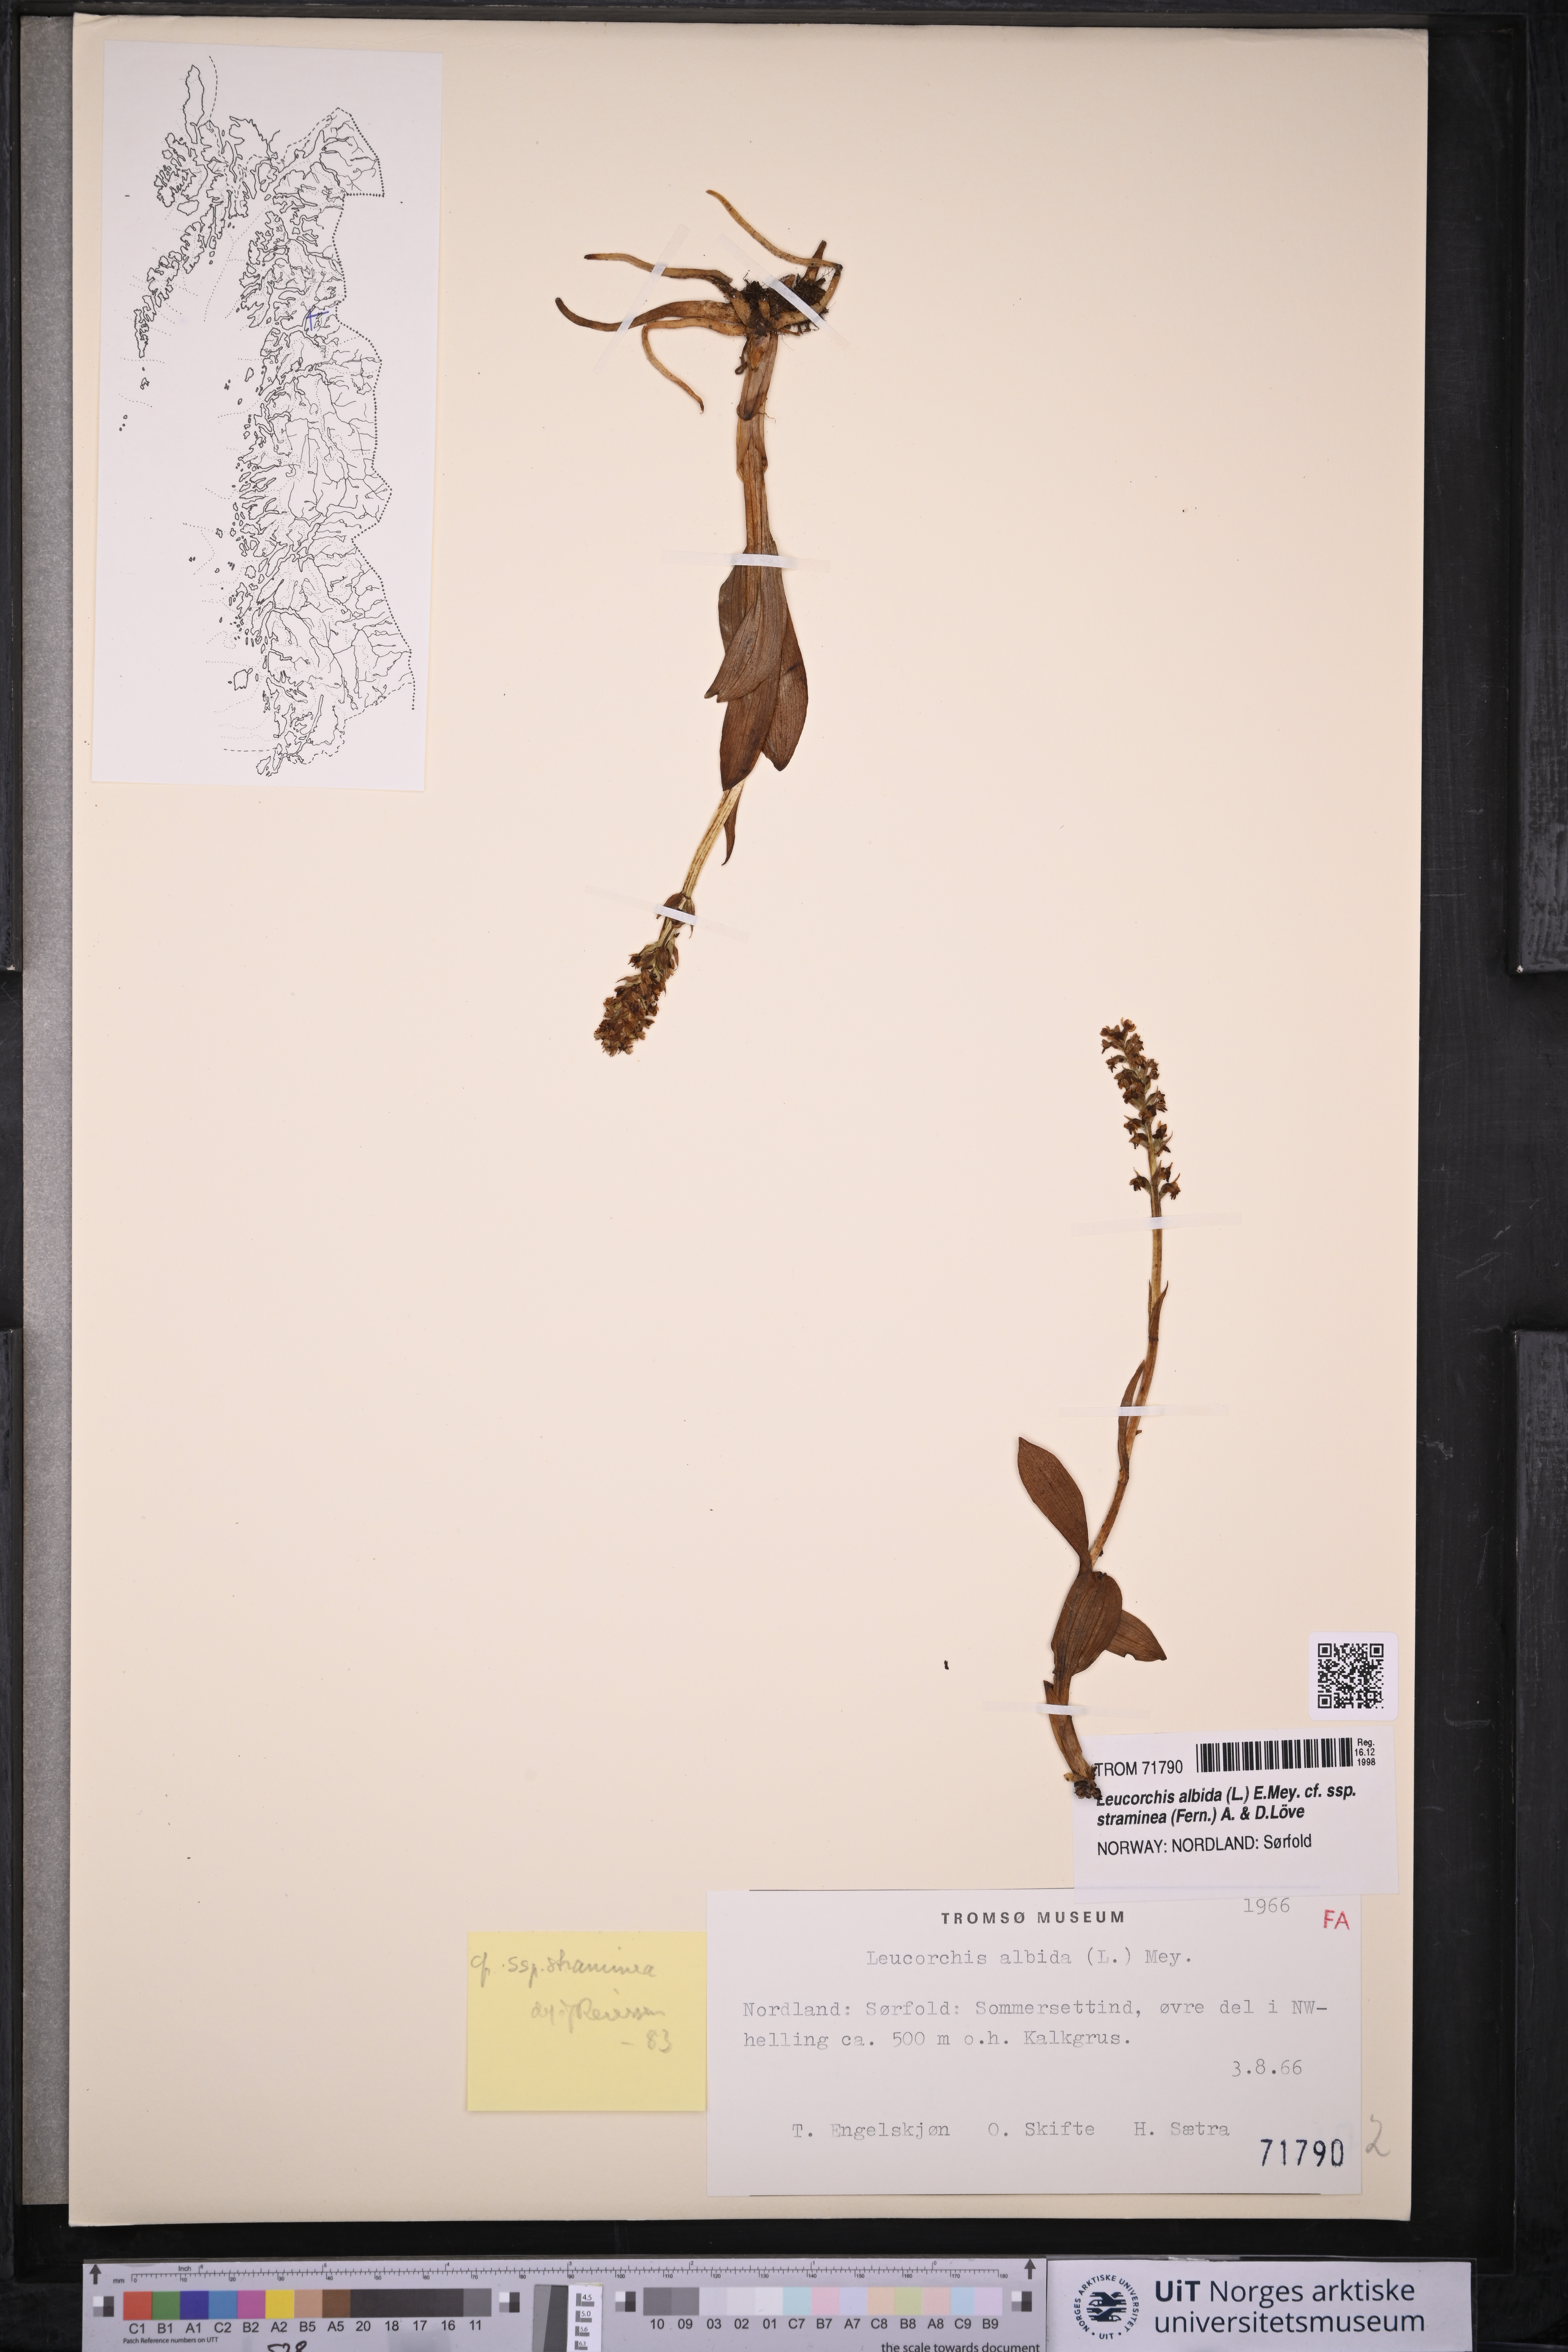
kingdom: Plantae
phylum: Tracheophyta
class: Liliopsida
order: Asparagales
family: Orchidaceae
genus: Pseudorchis
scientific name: Pseudorchis straminea
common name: Vanilla-scented bog orchid
